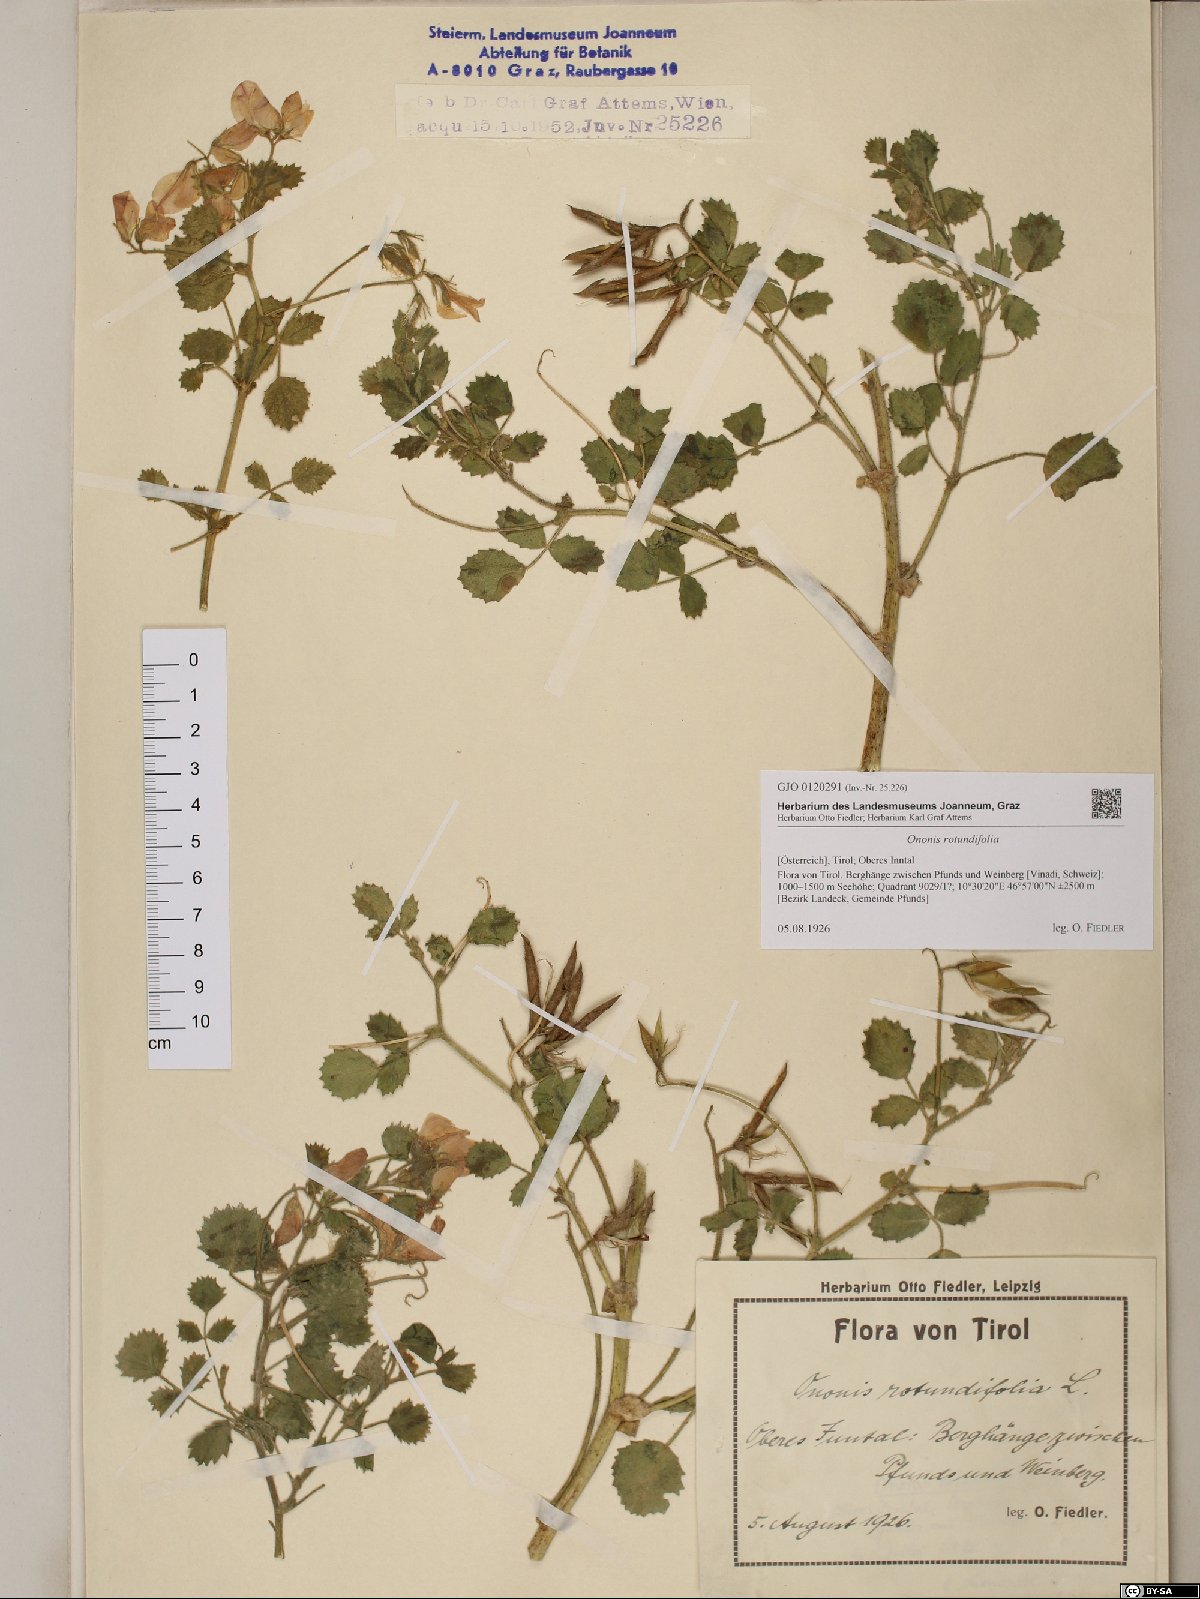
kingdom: Plantae
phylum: Tracheophyta
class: Magnoliopsida
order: Fabales
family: Fabaceae
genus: Ononis
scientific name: Ononis rotundifolia
